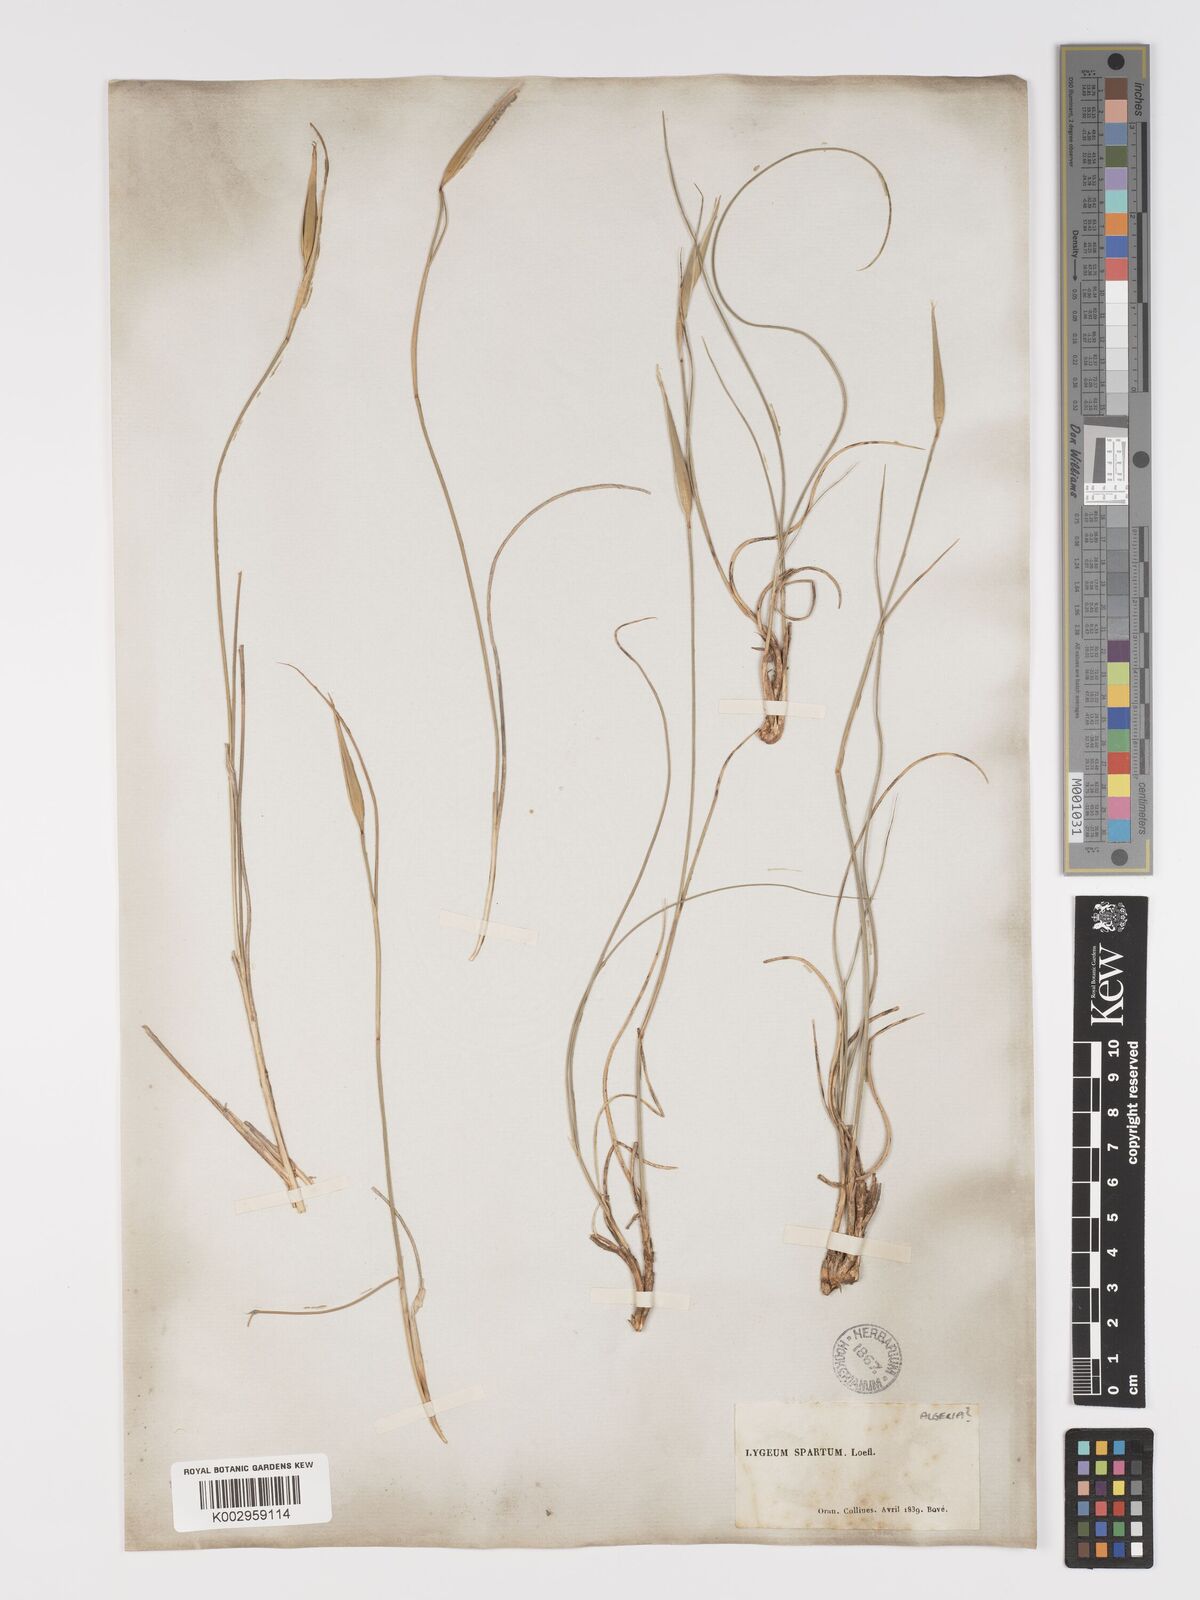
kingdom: Plantae
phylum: Tracheophyta
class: Liliopsida
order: Poales
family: Poaceae
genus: Lygeum
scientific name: Lygeum spartum
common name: Albardine
